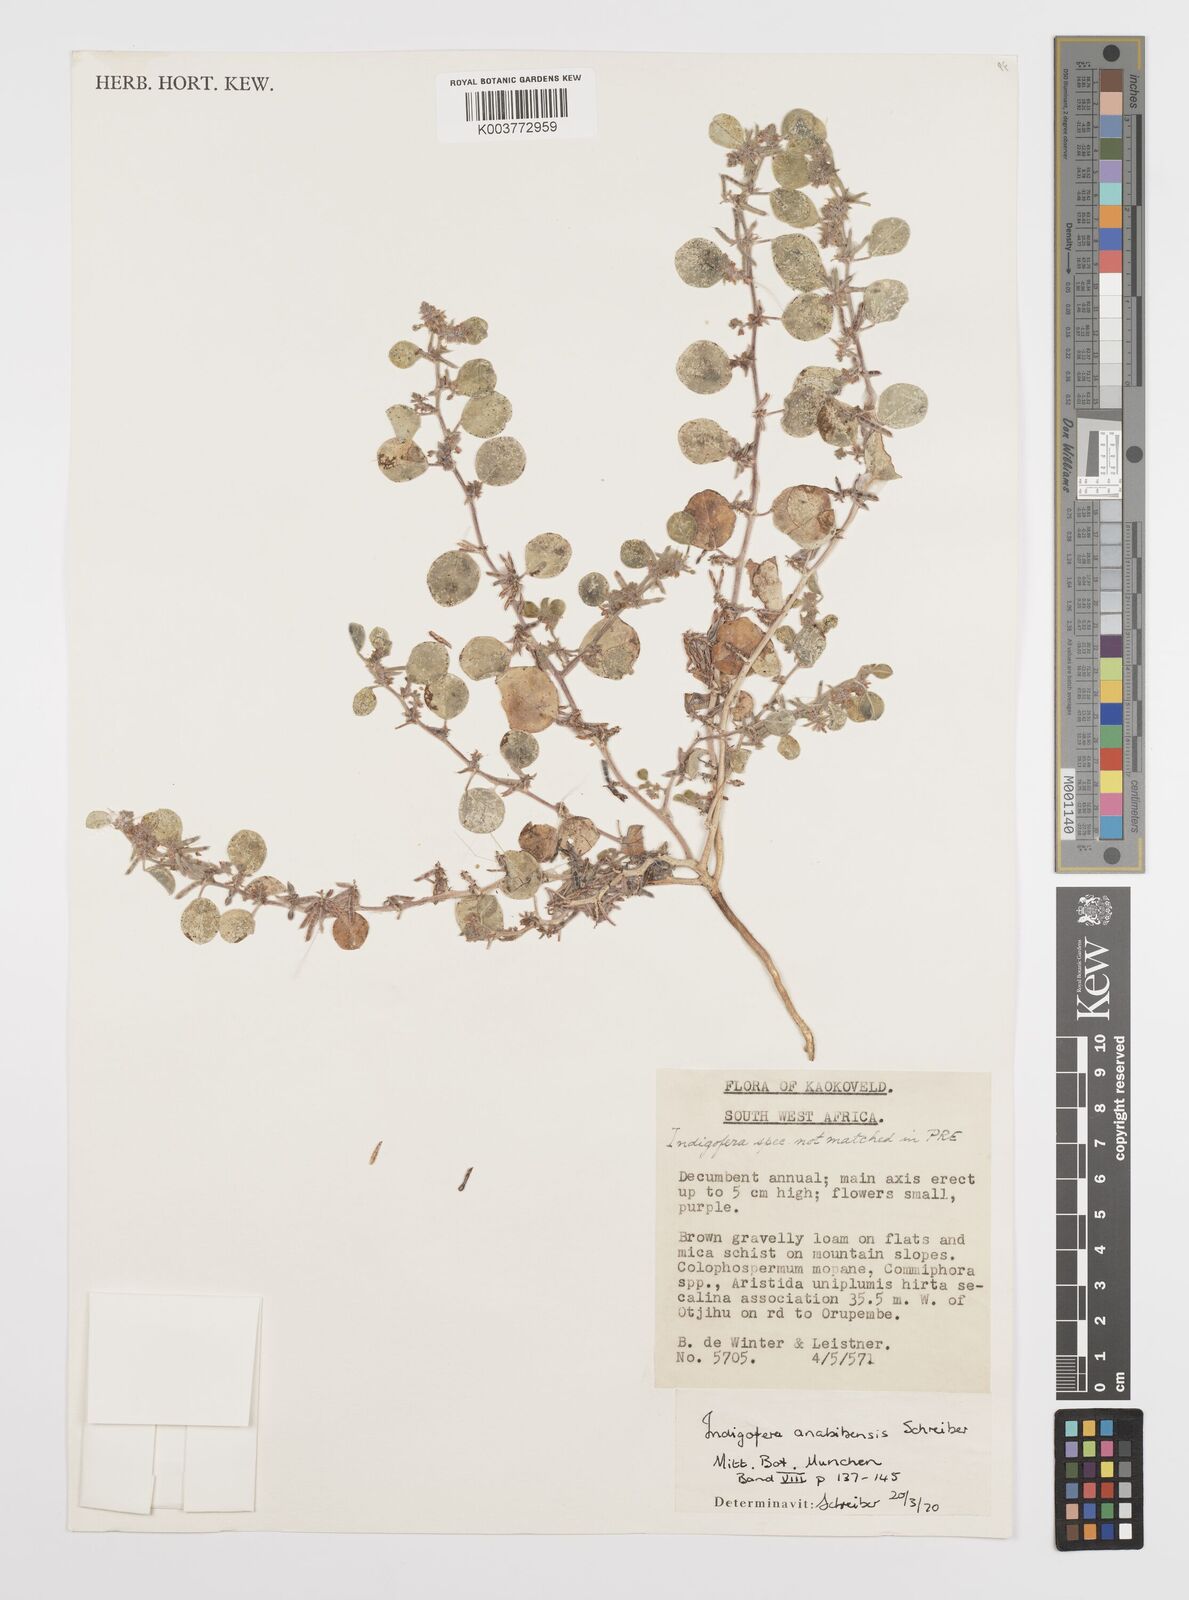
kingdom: Plantae
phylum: Tracheophyta
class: Magnoliopsida
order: Fabales
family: Fabaceae
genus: Indigofera
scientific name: Indigofera anabibensis
